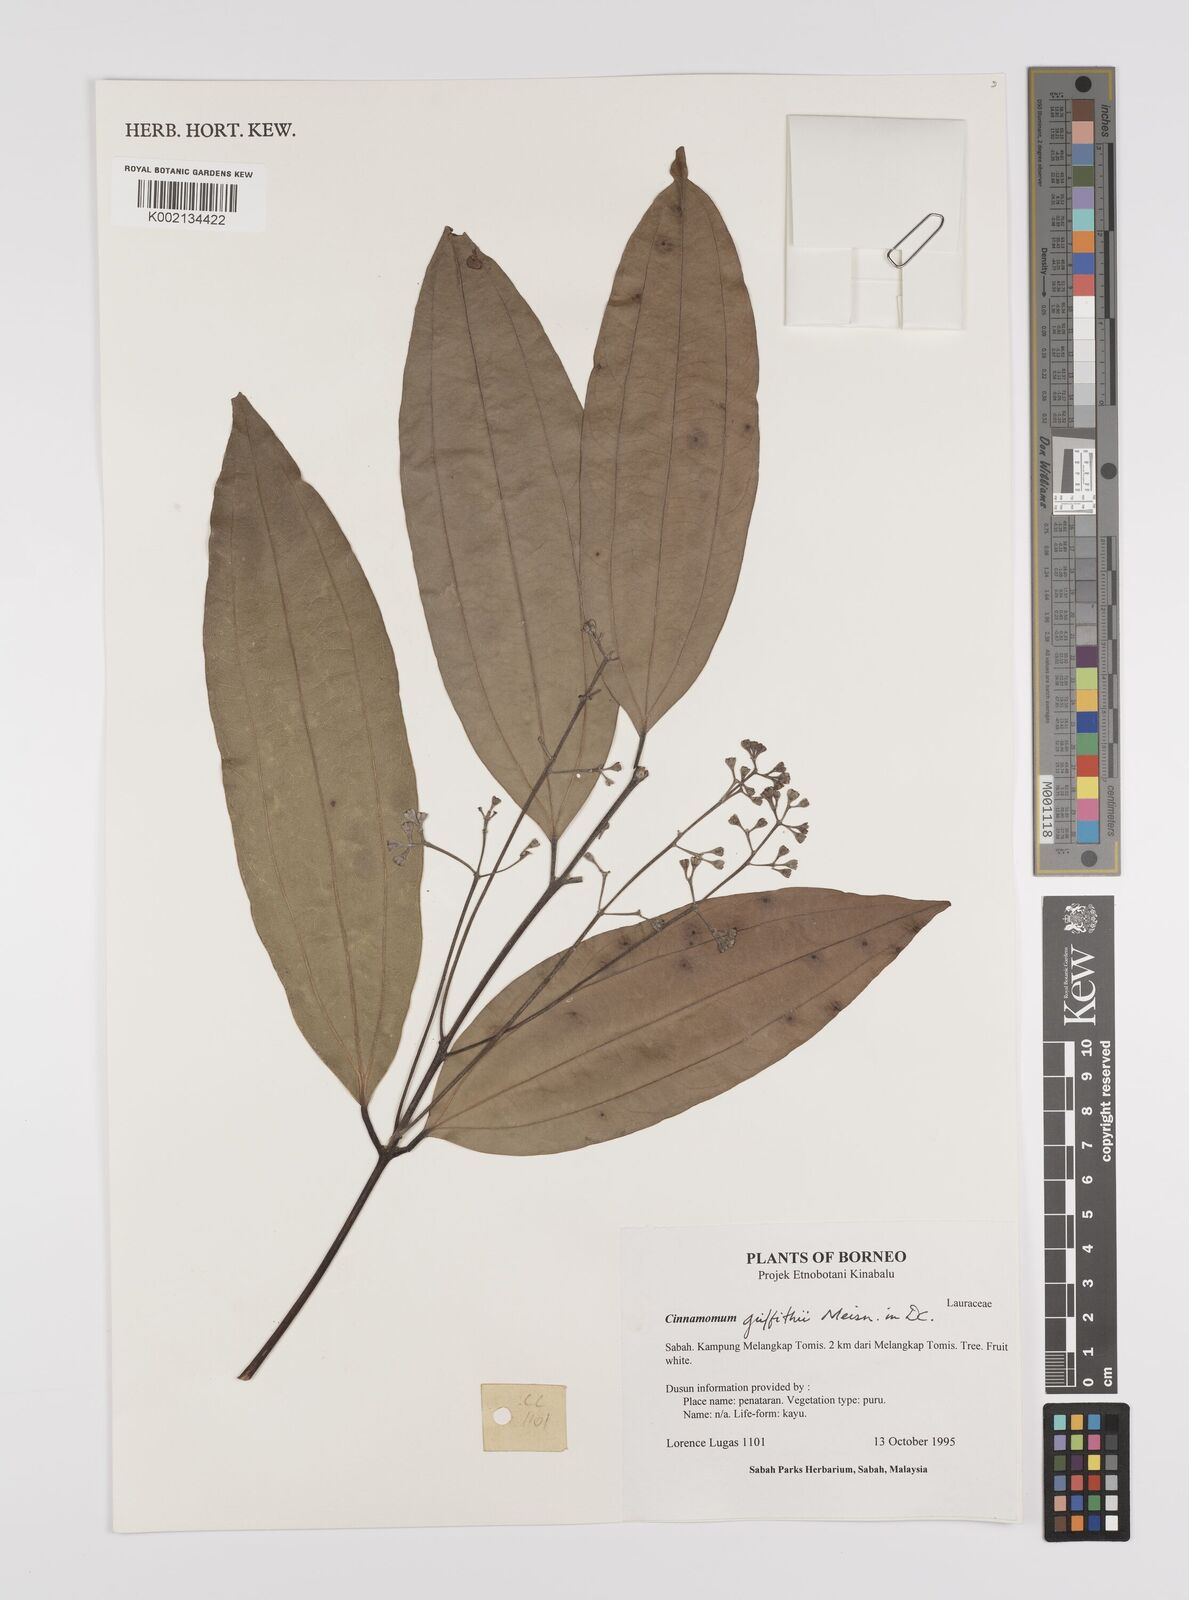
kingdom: Plantae
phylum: Tracheophyta
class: Magnoliopsida
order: Laurales
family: Lauraceae
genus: Cinnamomum
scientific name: Cinnamomum iners
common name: Wild cinnamon
